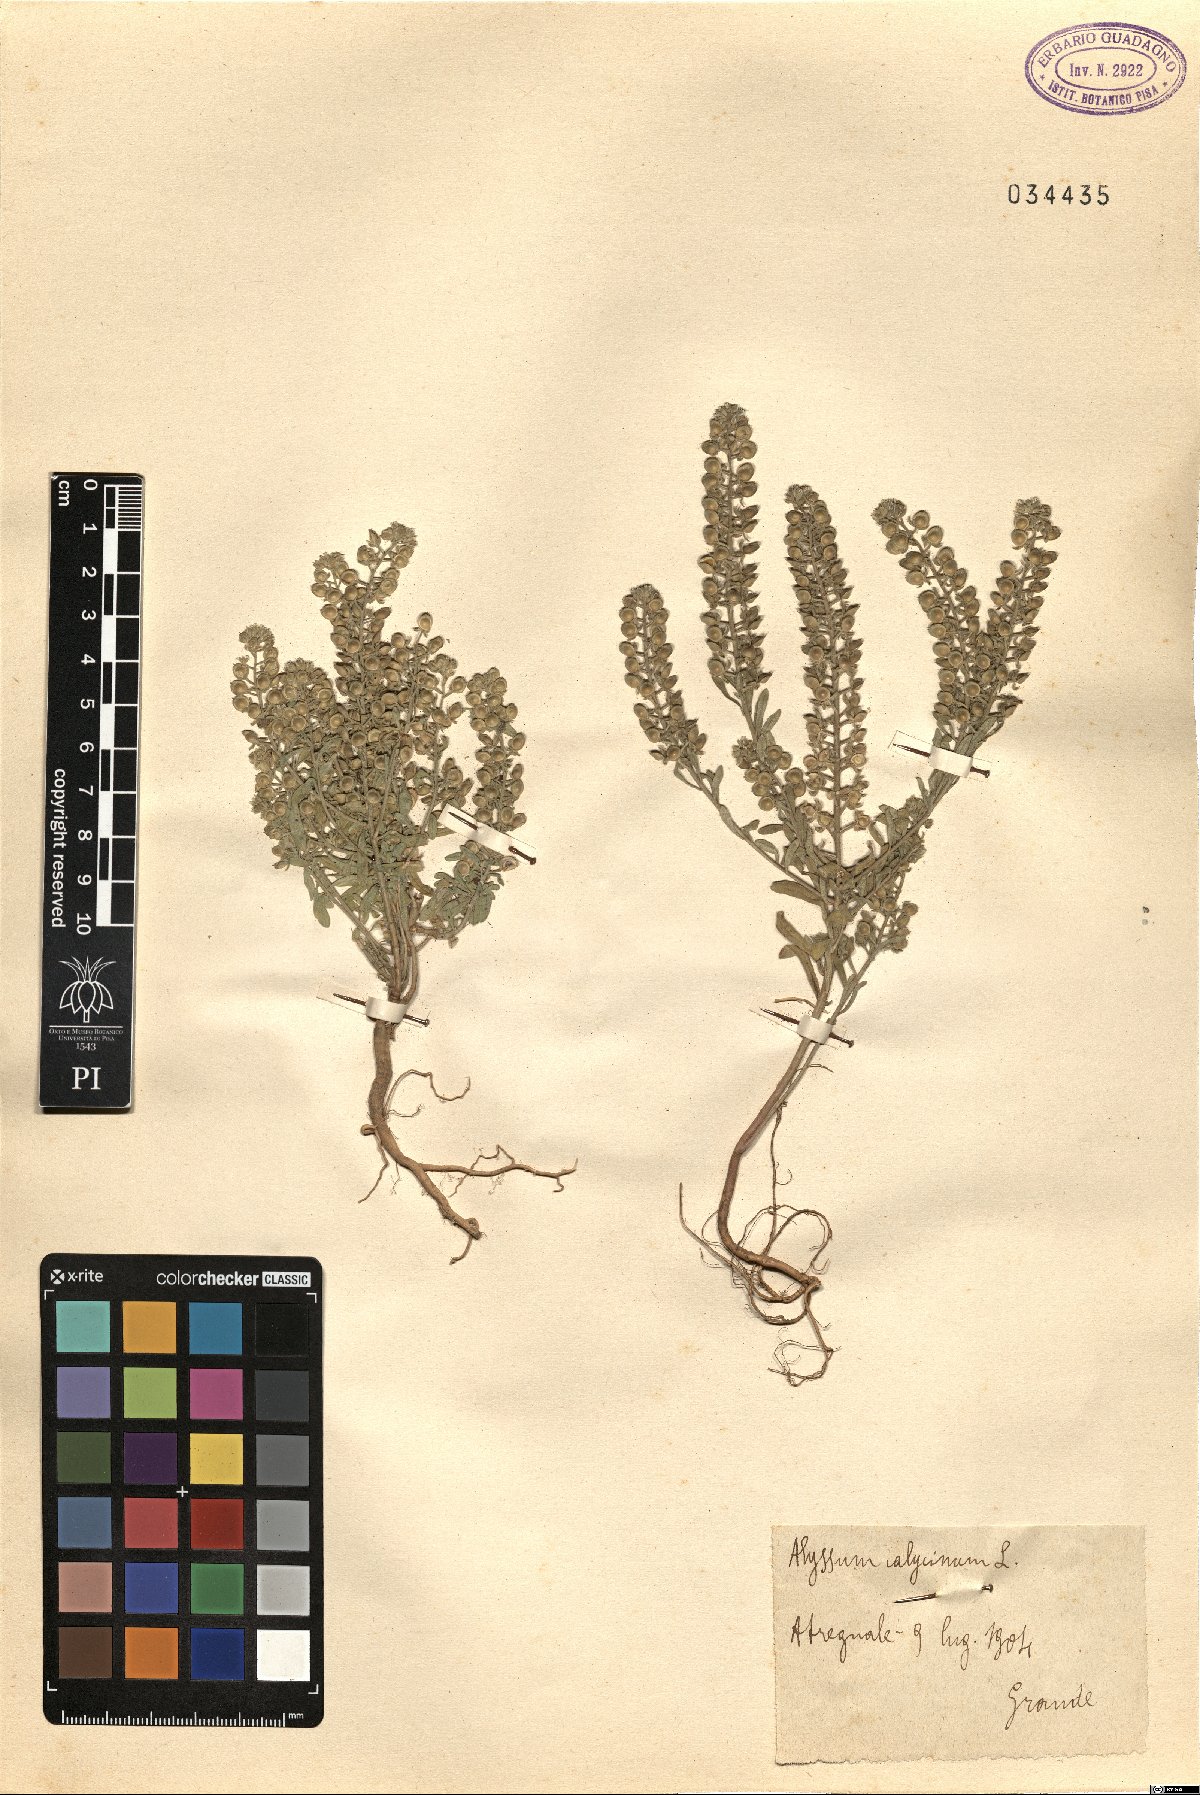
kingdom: Plantae
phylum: Tracheophyta
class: Magnoliopsida
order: Brassicales
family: Brassicaceae
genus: Alyssum
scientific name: Alyssum alyssoides
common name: Small alison
